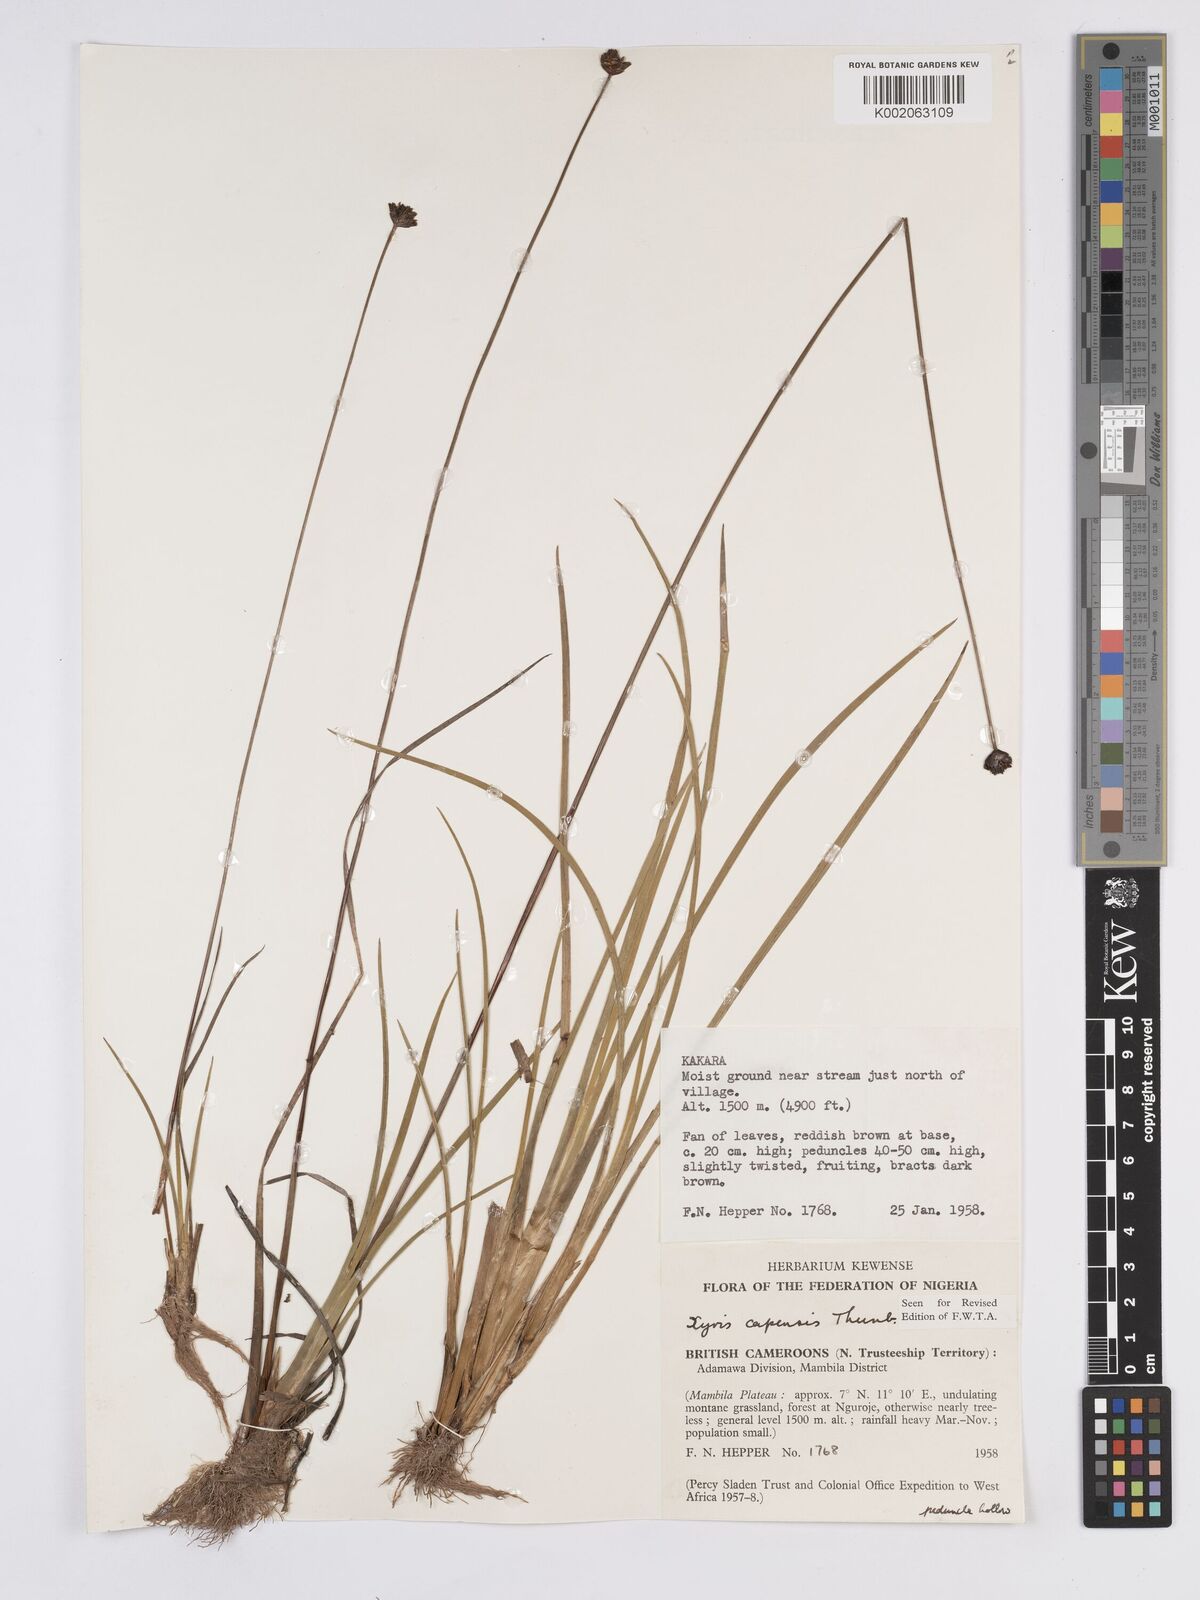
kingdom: Plantae
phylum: Tracheophyta
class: Liliopsida
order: Poales
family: Xyridaceae
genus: Xyris
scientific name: Xyris capensis
